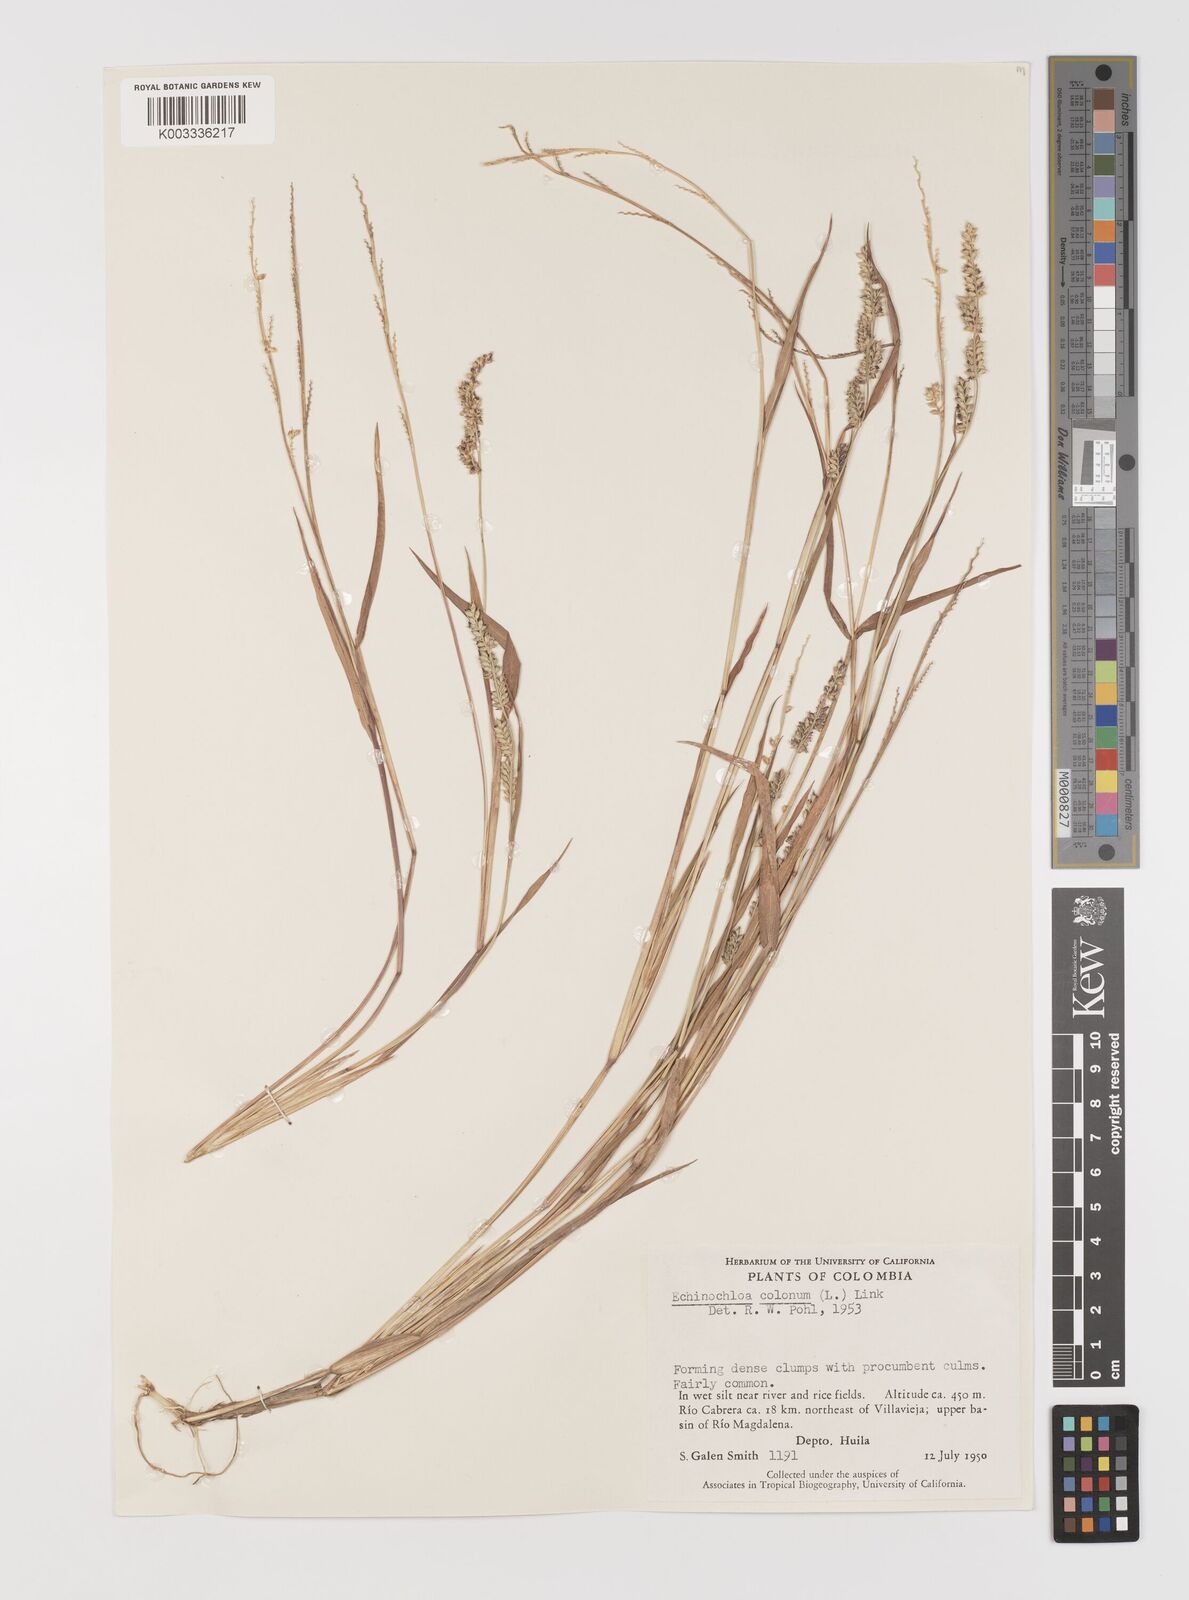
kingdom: Plantae
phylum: Tracheophyta
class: Liliopsida
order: Poales
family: Poaceae
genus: Echinochloa
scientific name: Echinochloa colonum
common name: Jungle rice
